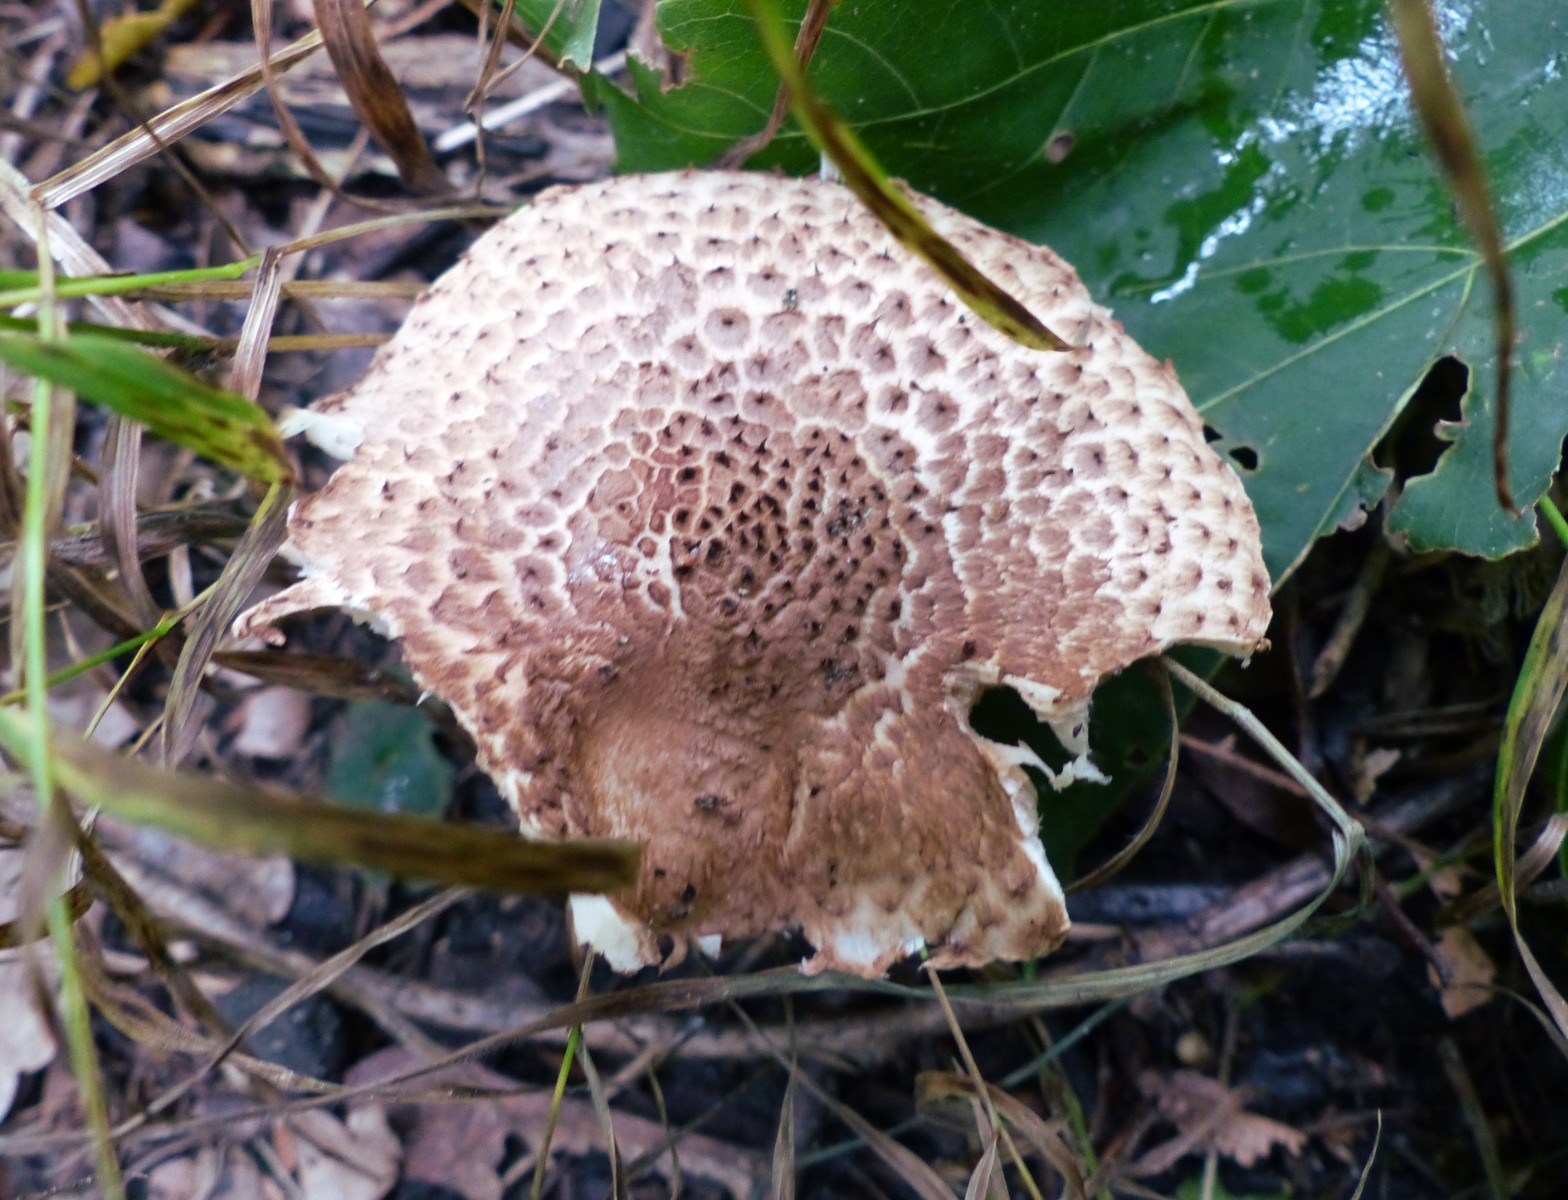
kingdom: Fungi
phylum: Basidiomycota
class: Agaricomycetes
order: Agaricales
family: Agaricaceae
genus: Echinoderma
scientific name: Echinoderma
